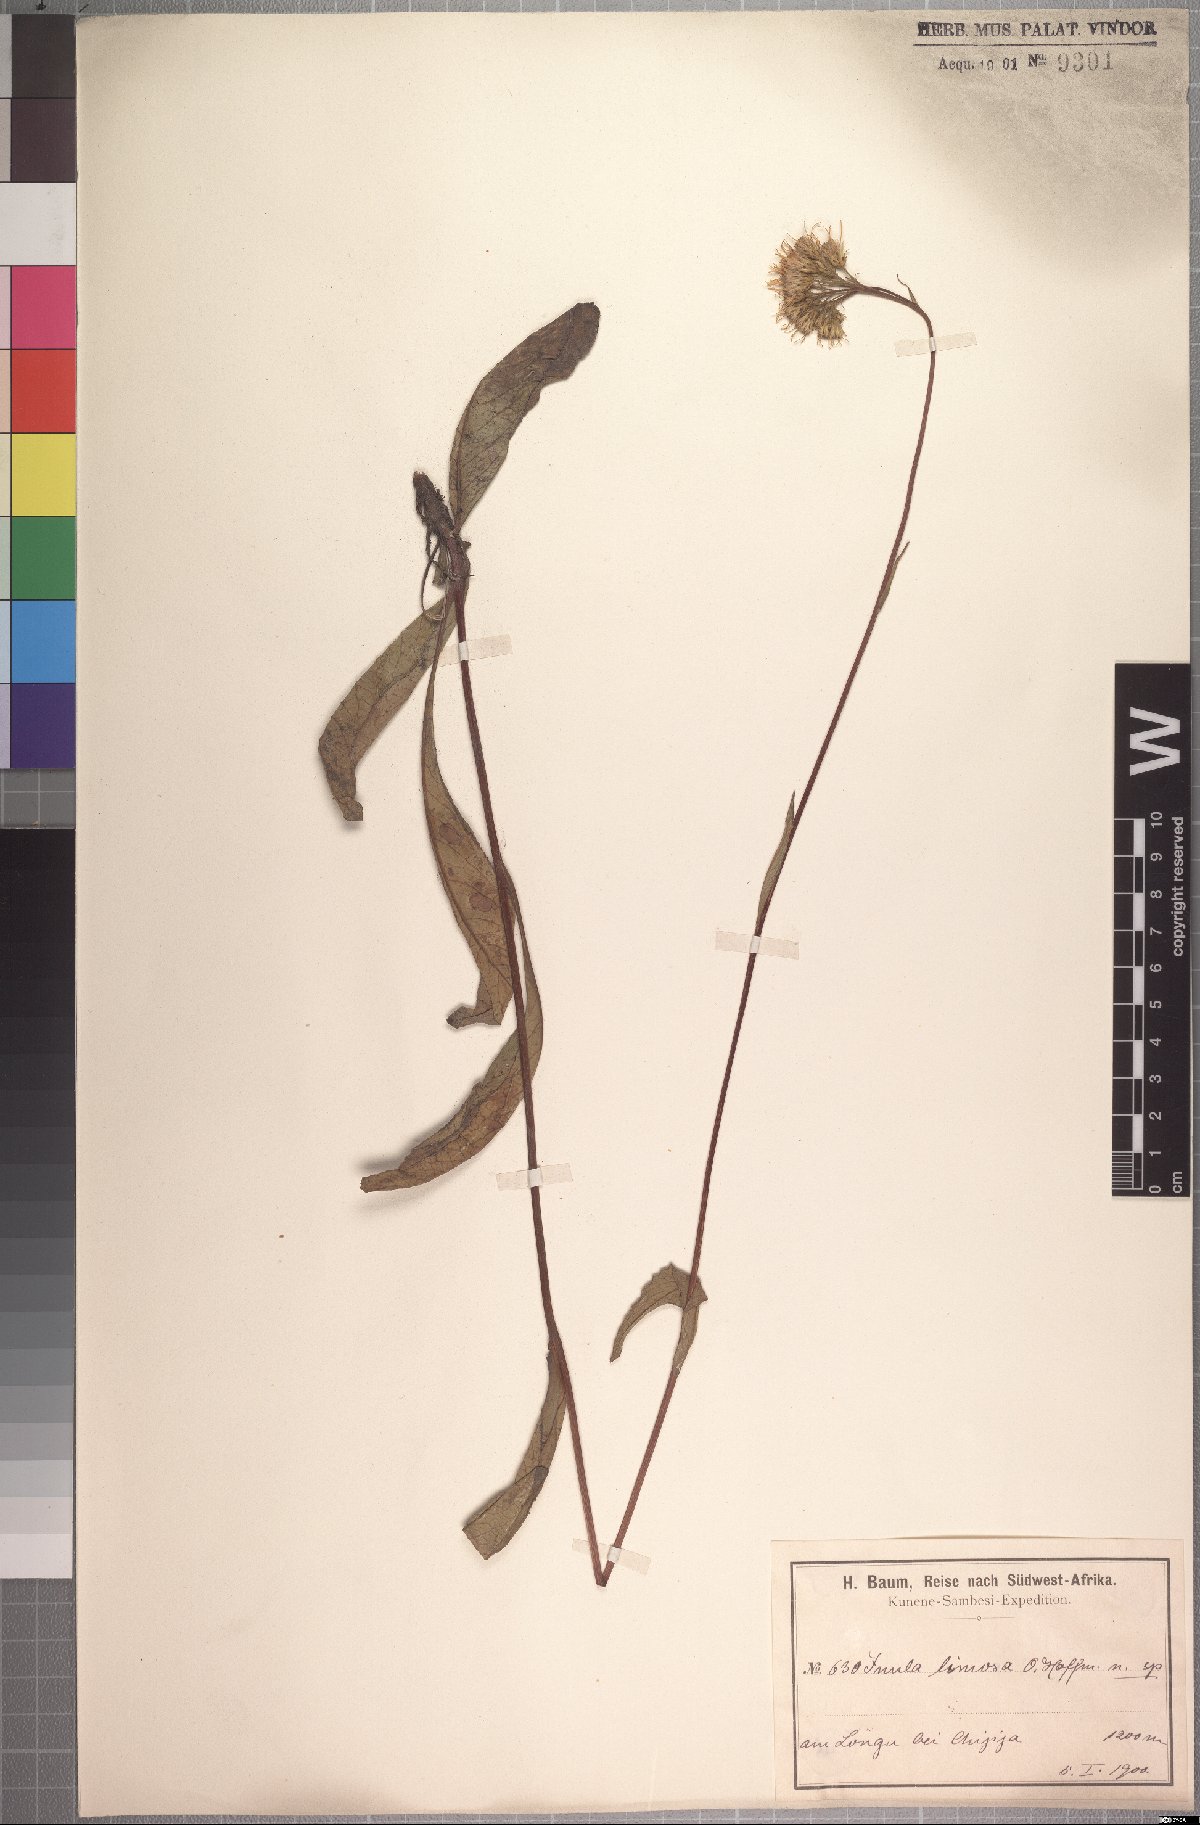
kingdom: Plantae
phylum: Tracheophyta
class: Magnoliopsida
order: Asterales
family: Asteraceae
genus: Inula
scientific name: Inula limosa
